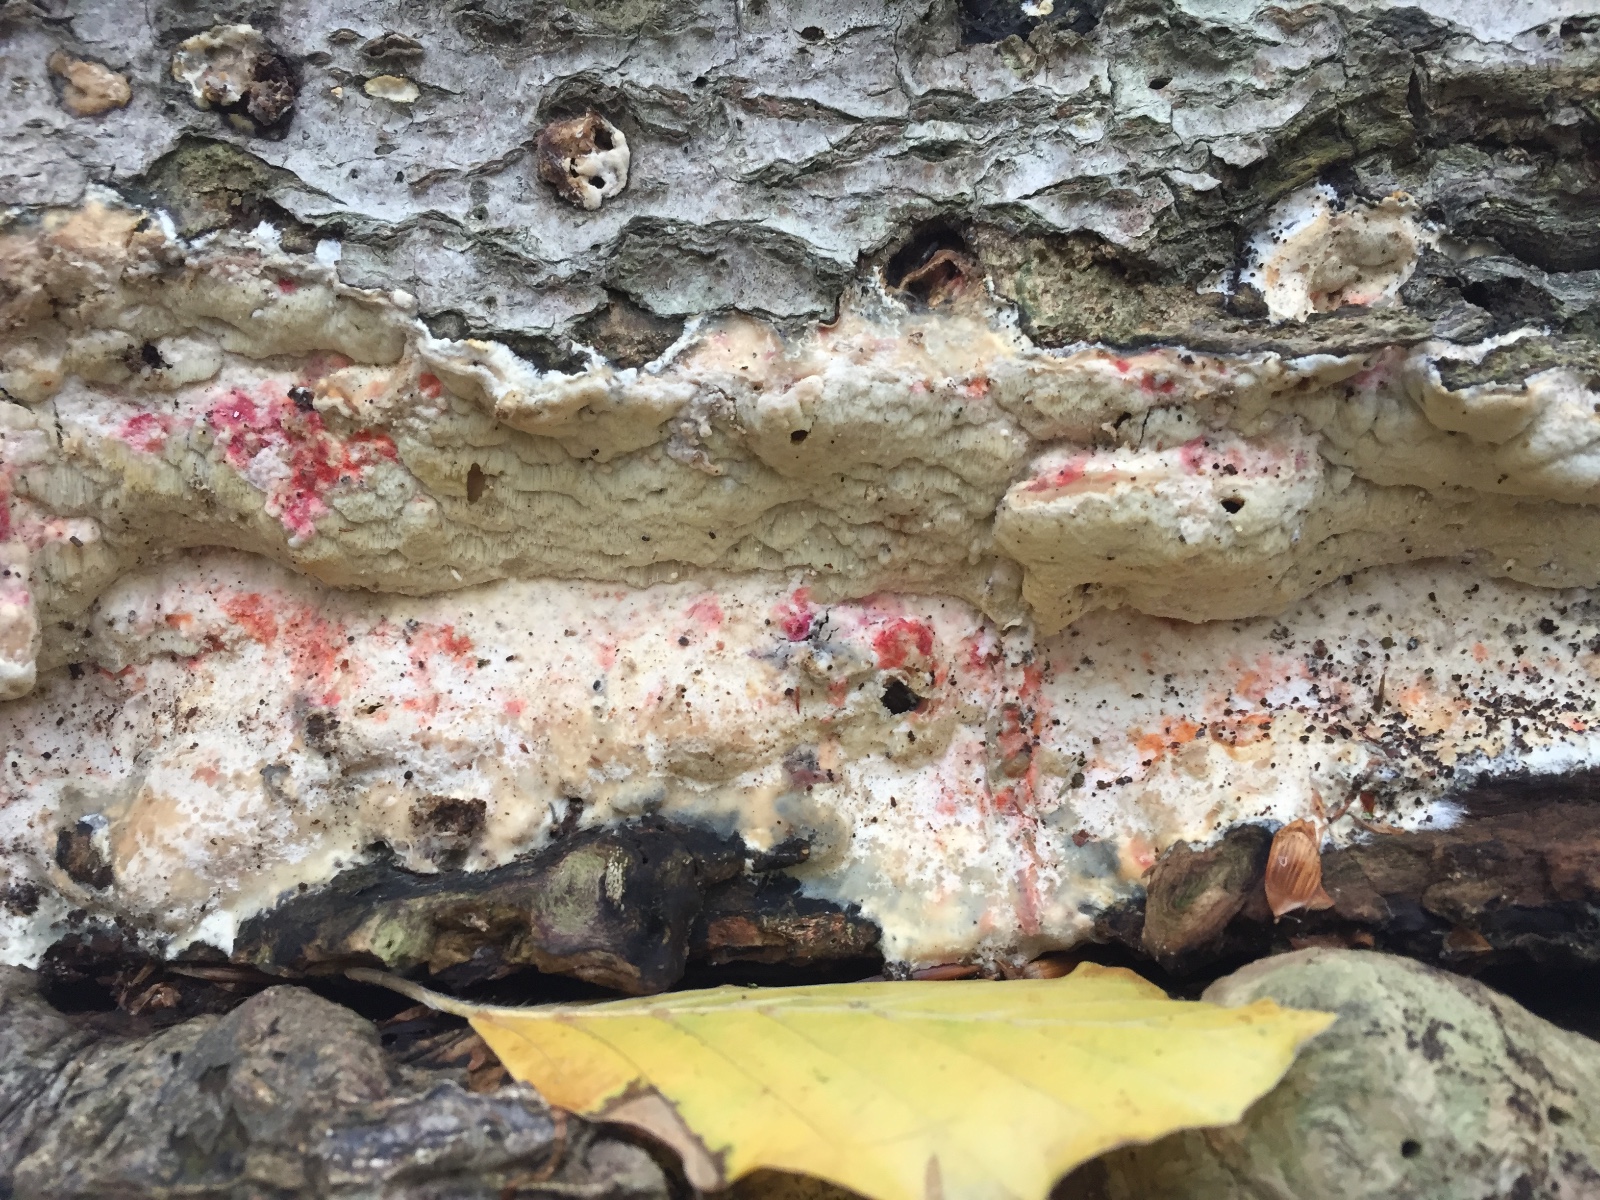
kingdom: Fungi
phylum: Basidiomycota
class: Agaricomycetes
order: Polyporales
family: Irpicaceae
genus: Gloeoporus
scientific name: Gloeoporus pannocinctus
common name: grøngul foldporesvamp
